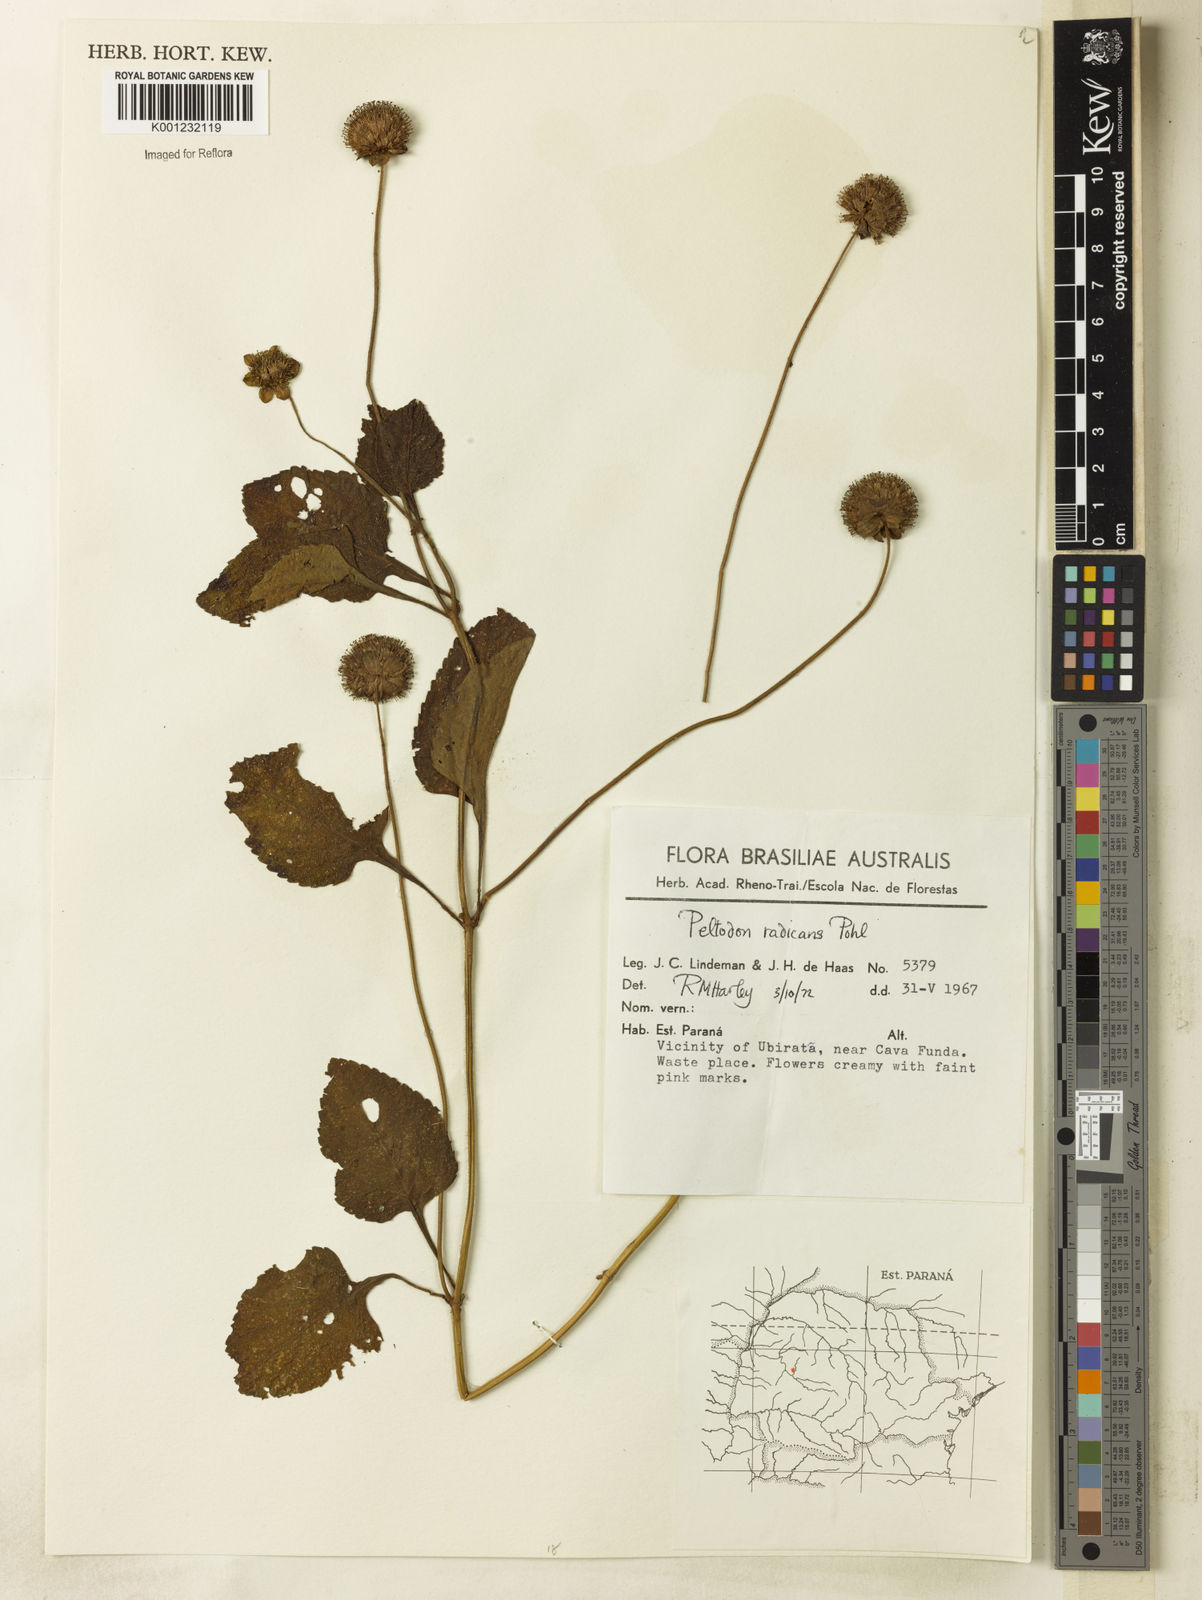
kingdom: Plantae
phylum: Tracheophyta
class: Magnoliopsida
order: Lamiales
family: Lamiaceae
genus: Hyptis
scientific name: Hyptis radicans
